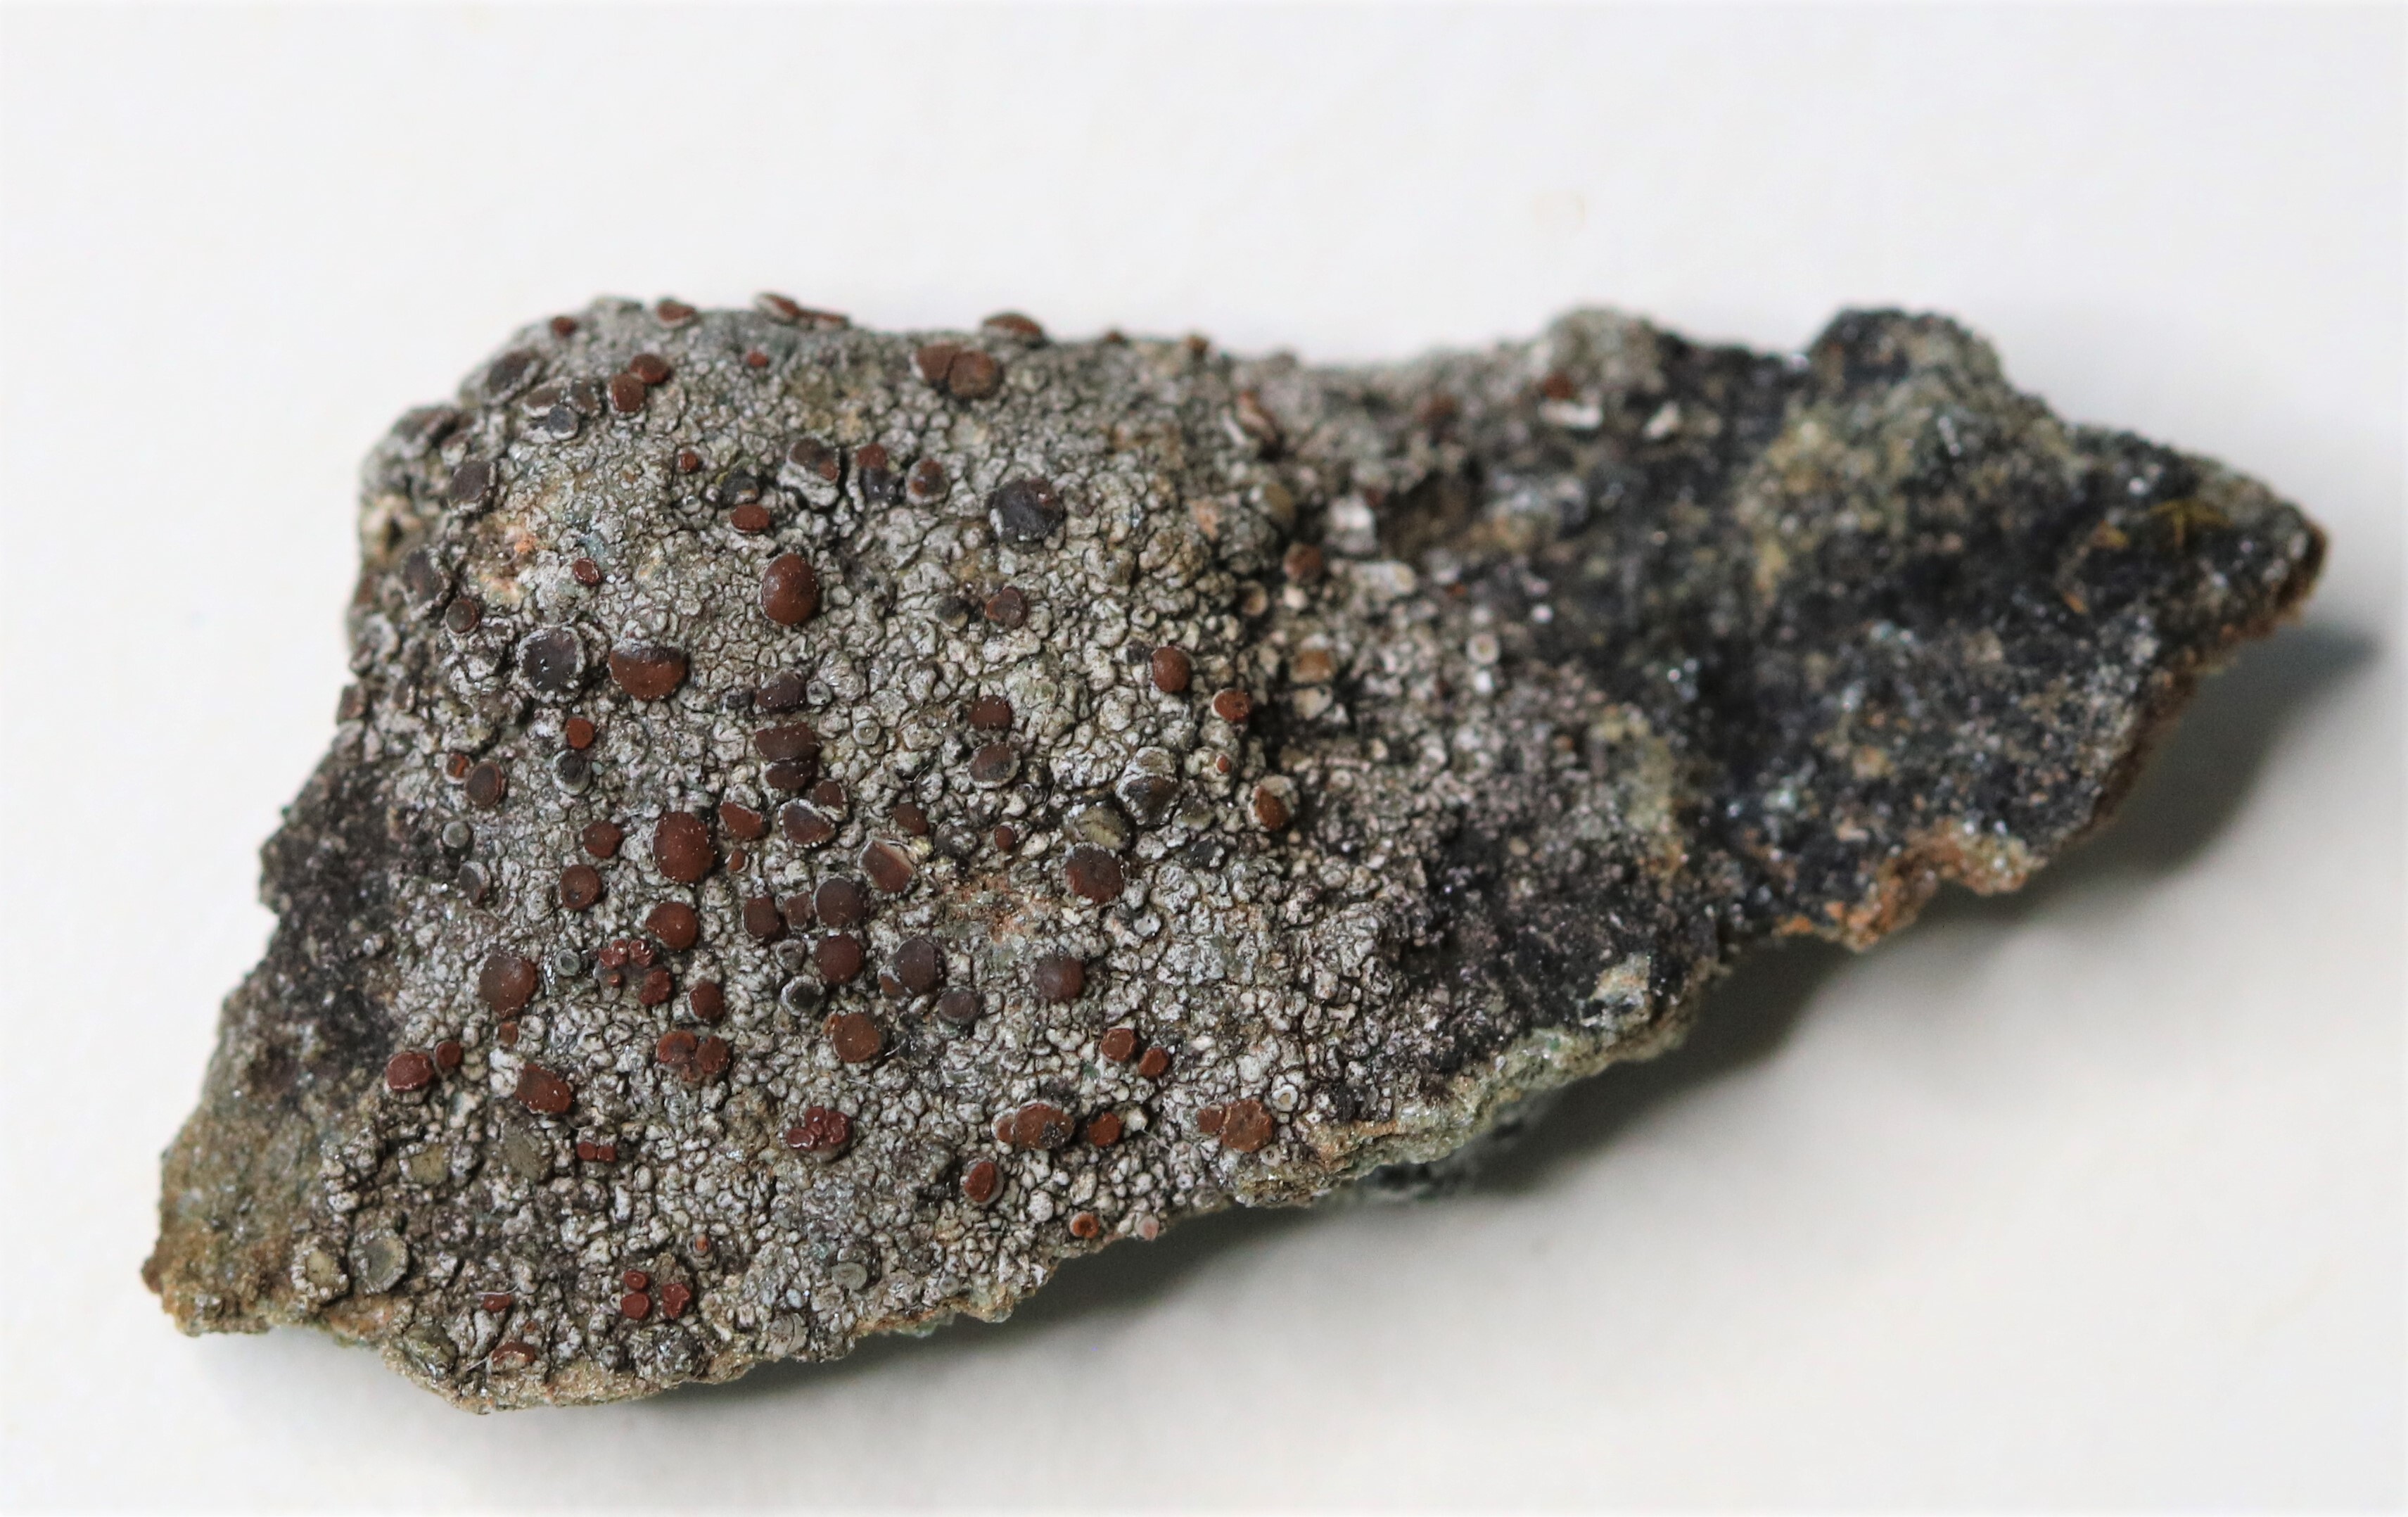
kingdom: Fungi
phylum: Ascomycota
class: Lecanoromycetes
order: Teloschistales
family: Teloschistaceae
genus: Blastenia
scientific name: Blastenia crenularia
